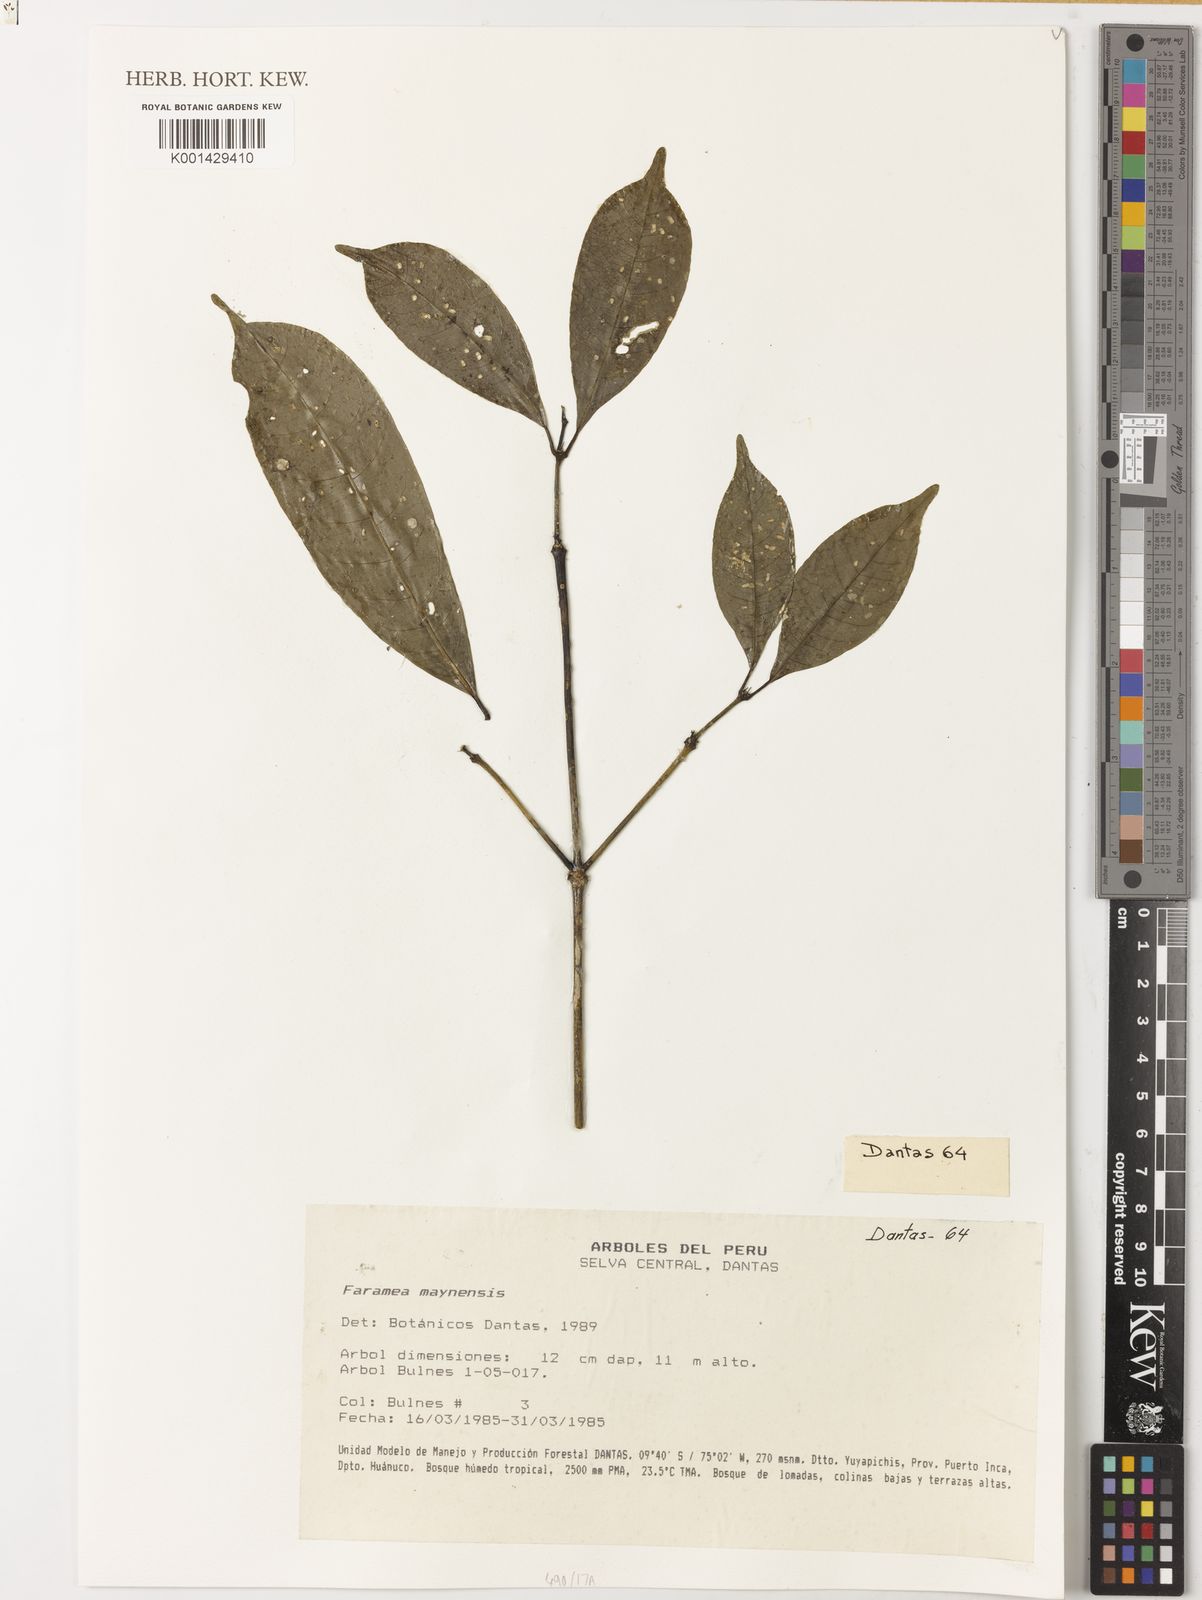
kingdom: Plantae
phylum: Tracheophyta
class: Magnoliopsida
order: Gentianales
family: Rubiaceae
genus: Faramea
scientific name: Faramea multiflora
